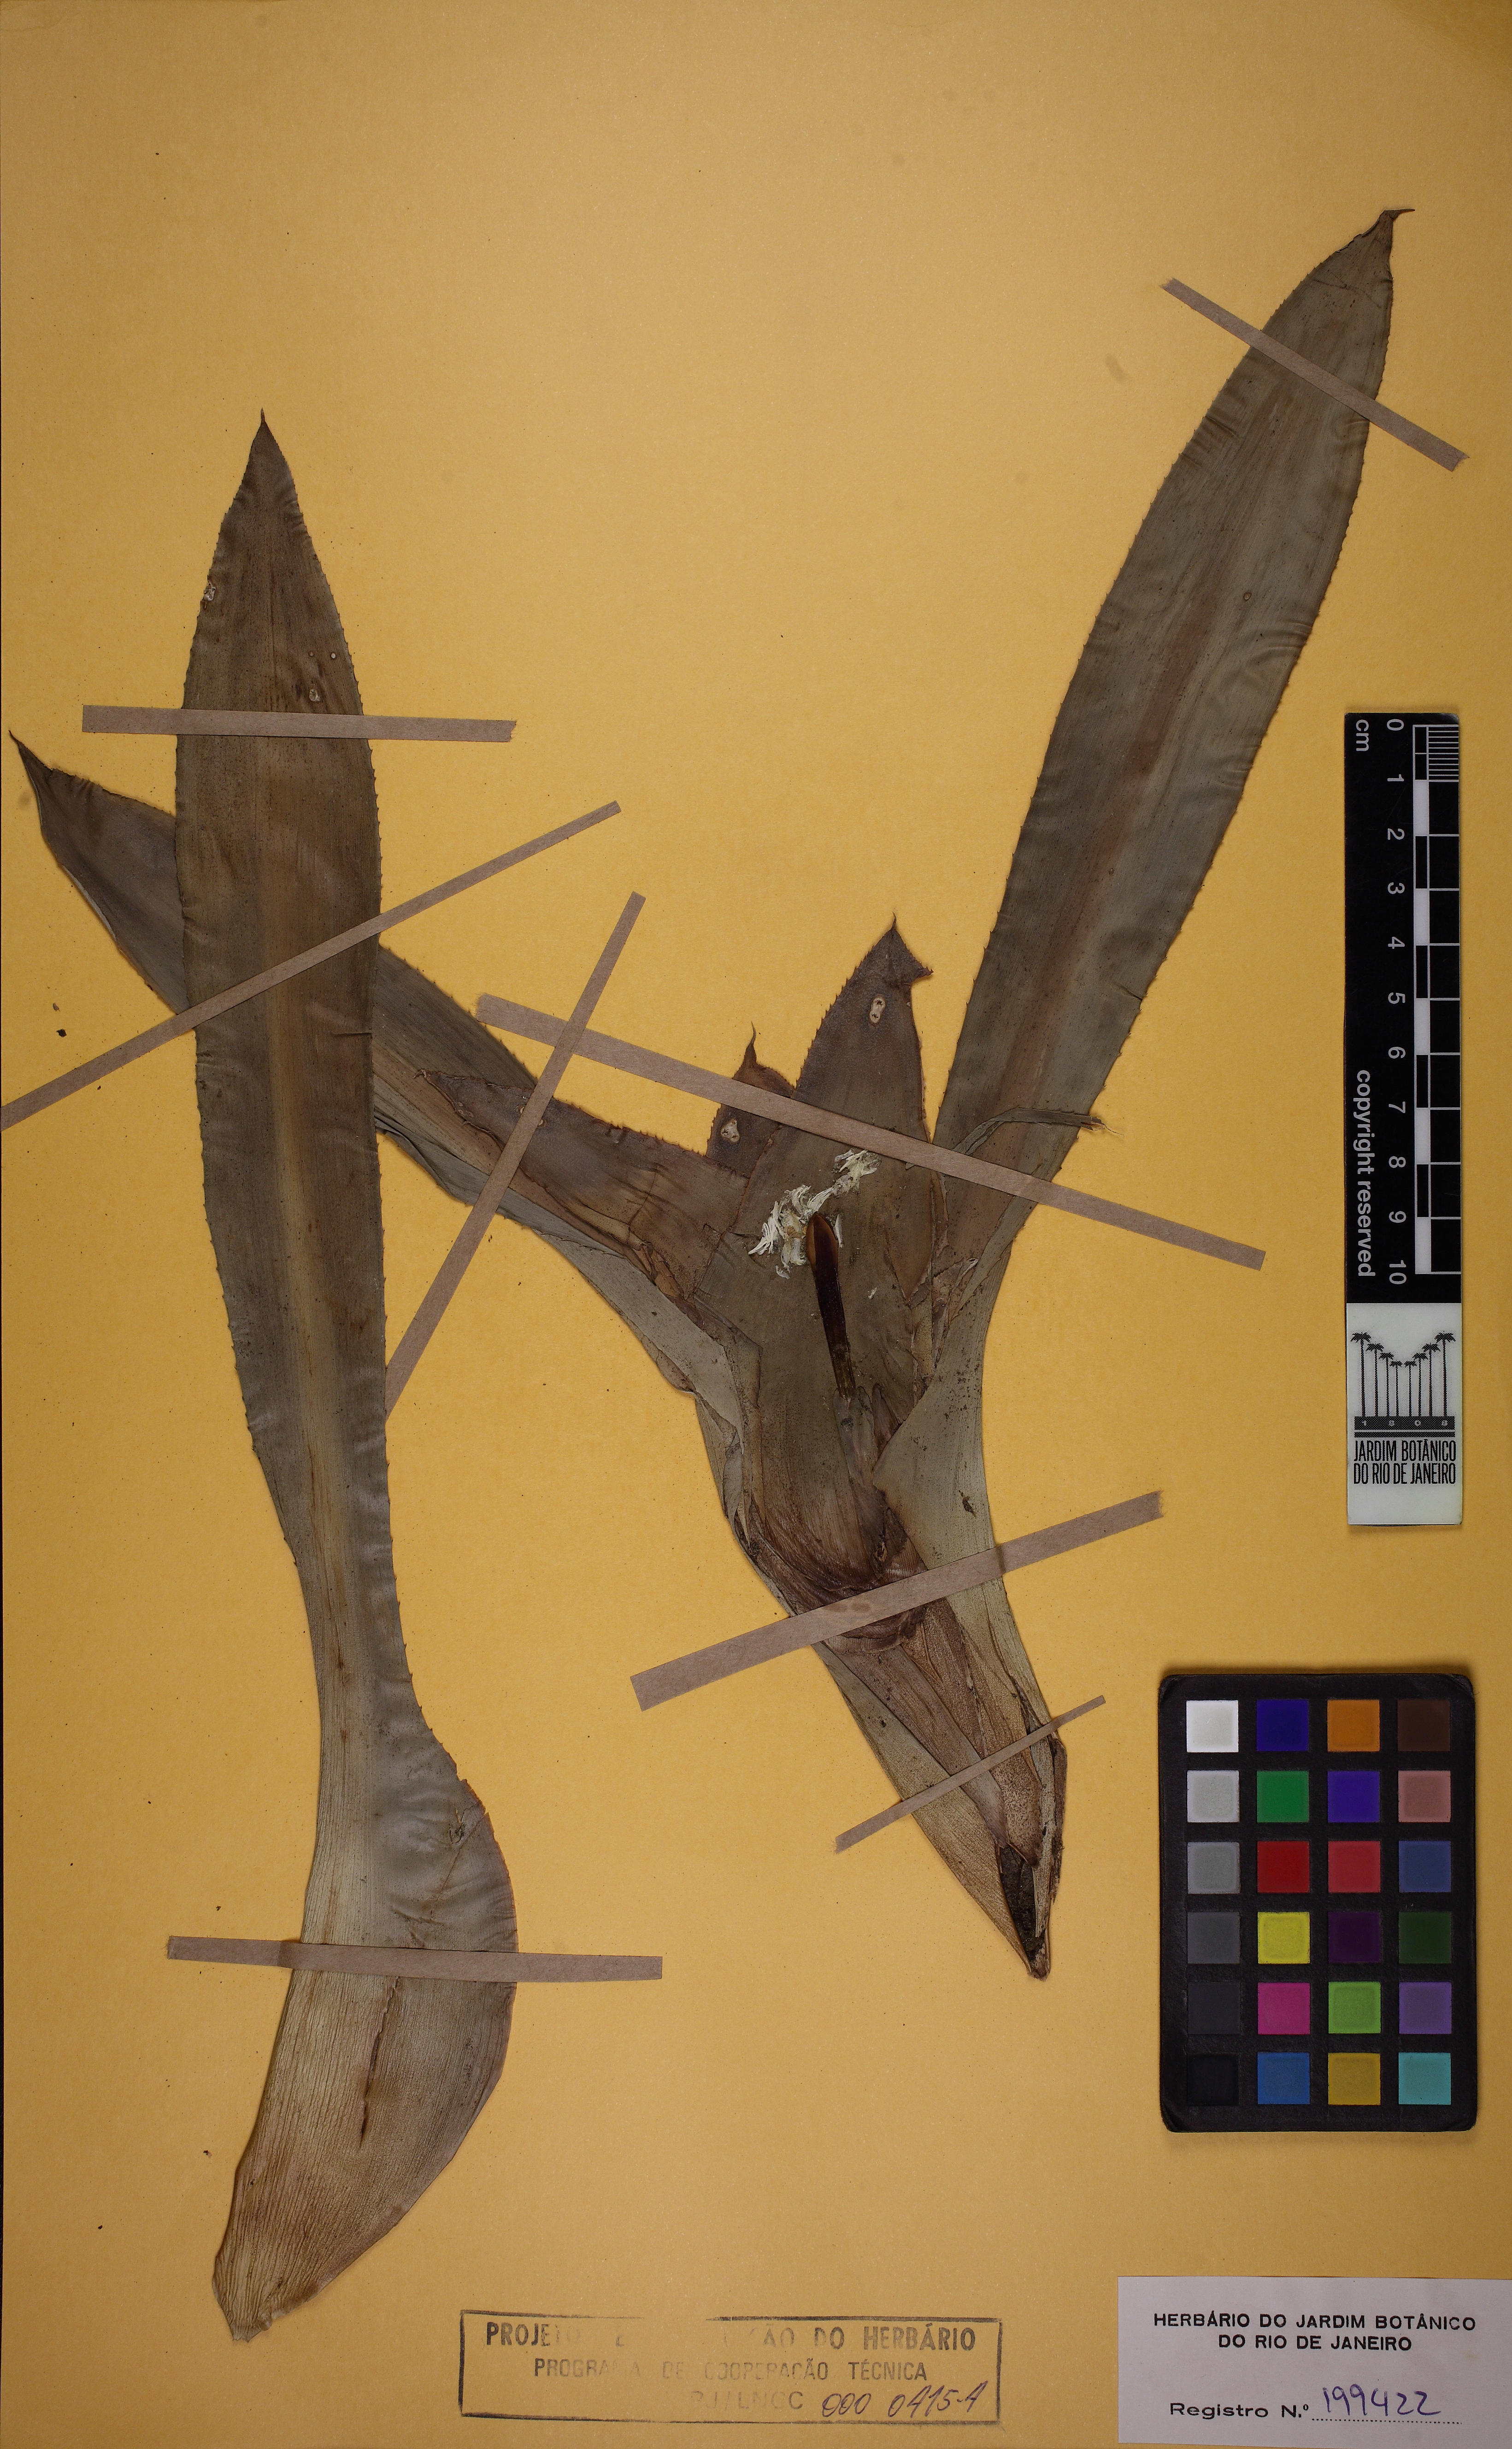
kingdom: Plantae
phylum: Tracheophyta
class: Liliopsida
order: Poales
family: Bromeliaceae
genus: Nidularium
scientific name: Nidularium longiflorum
